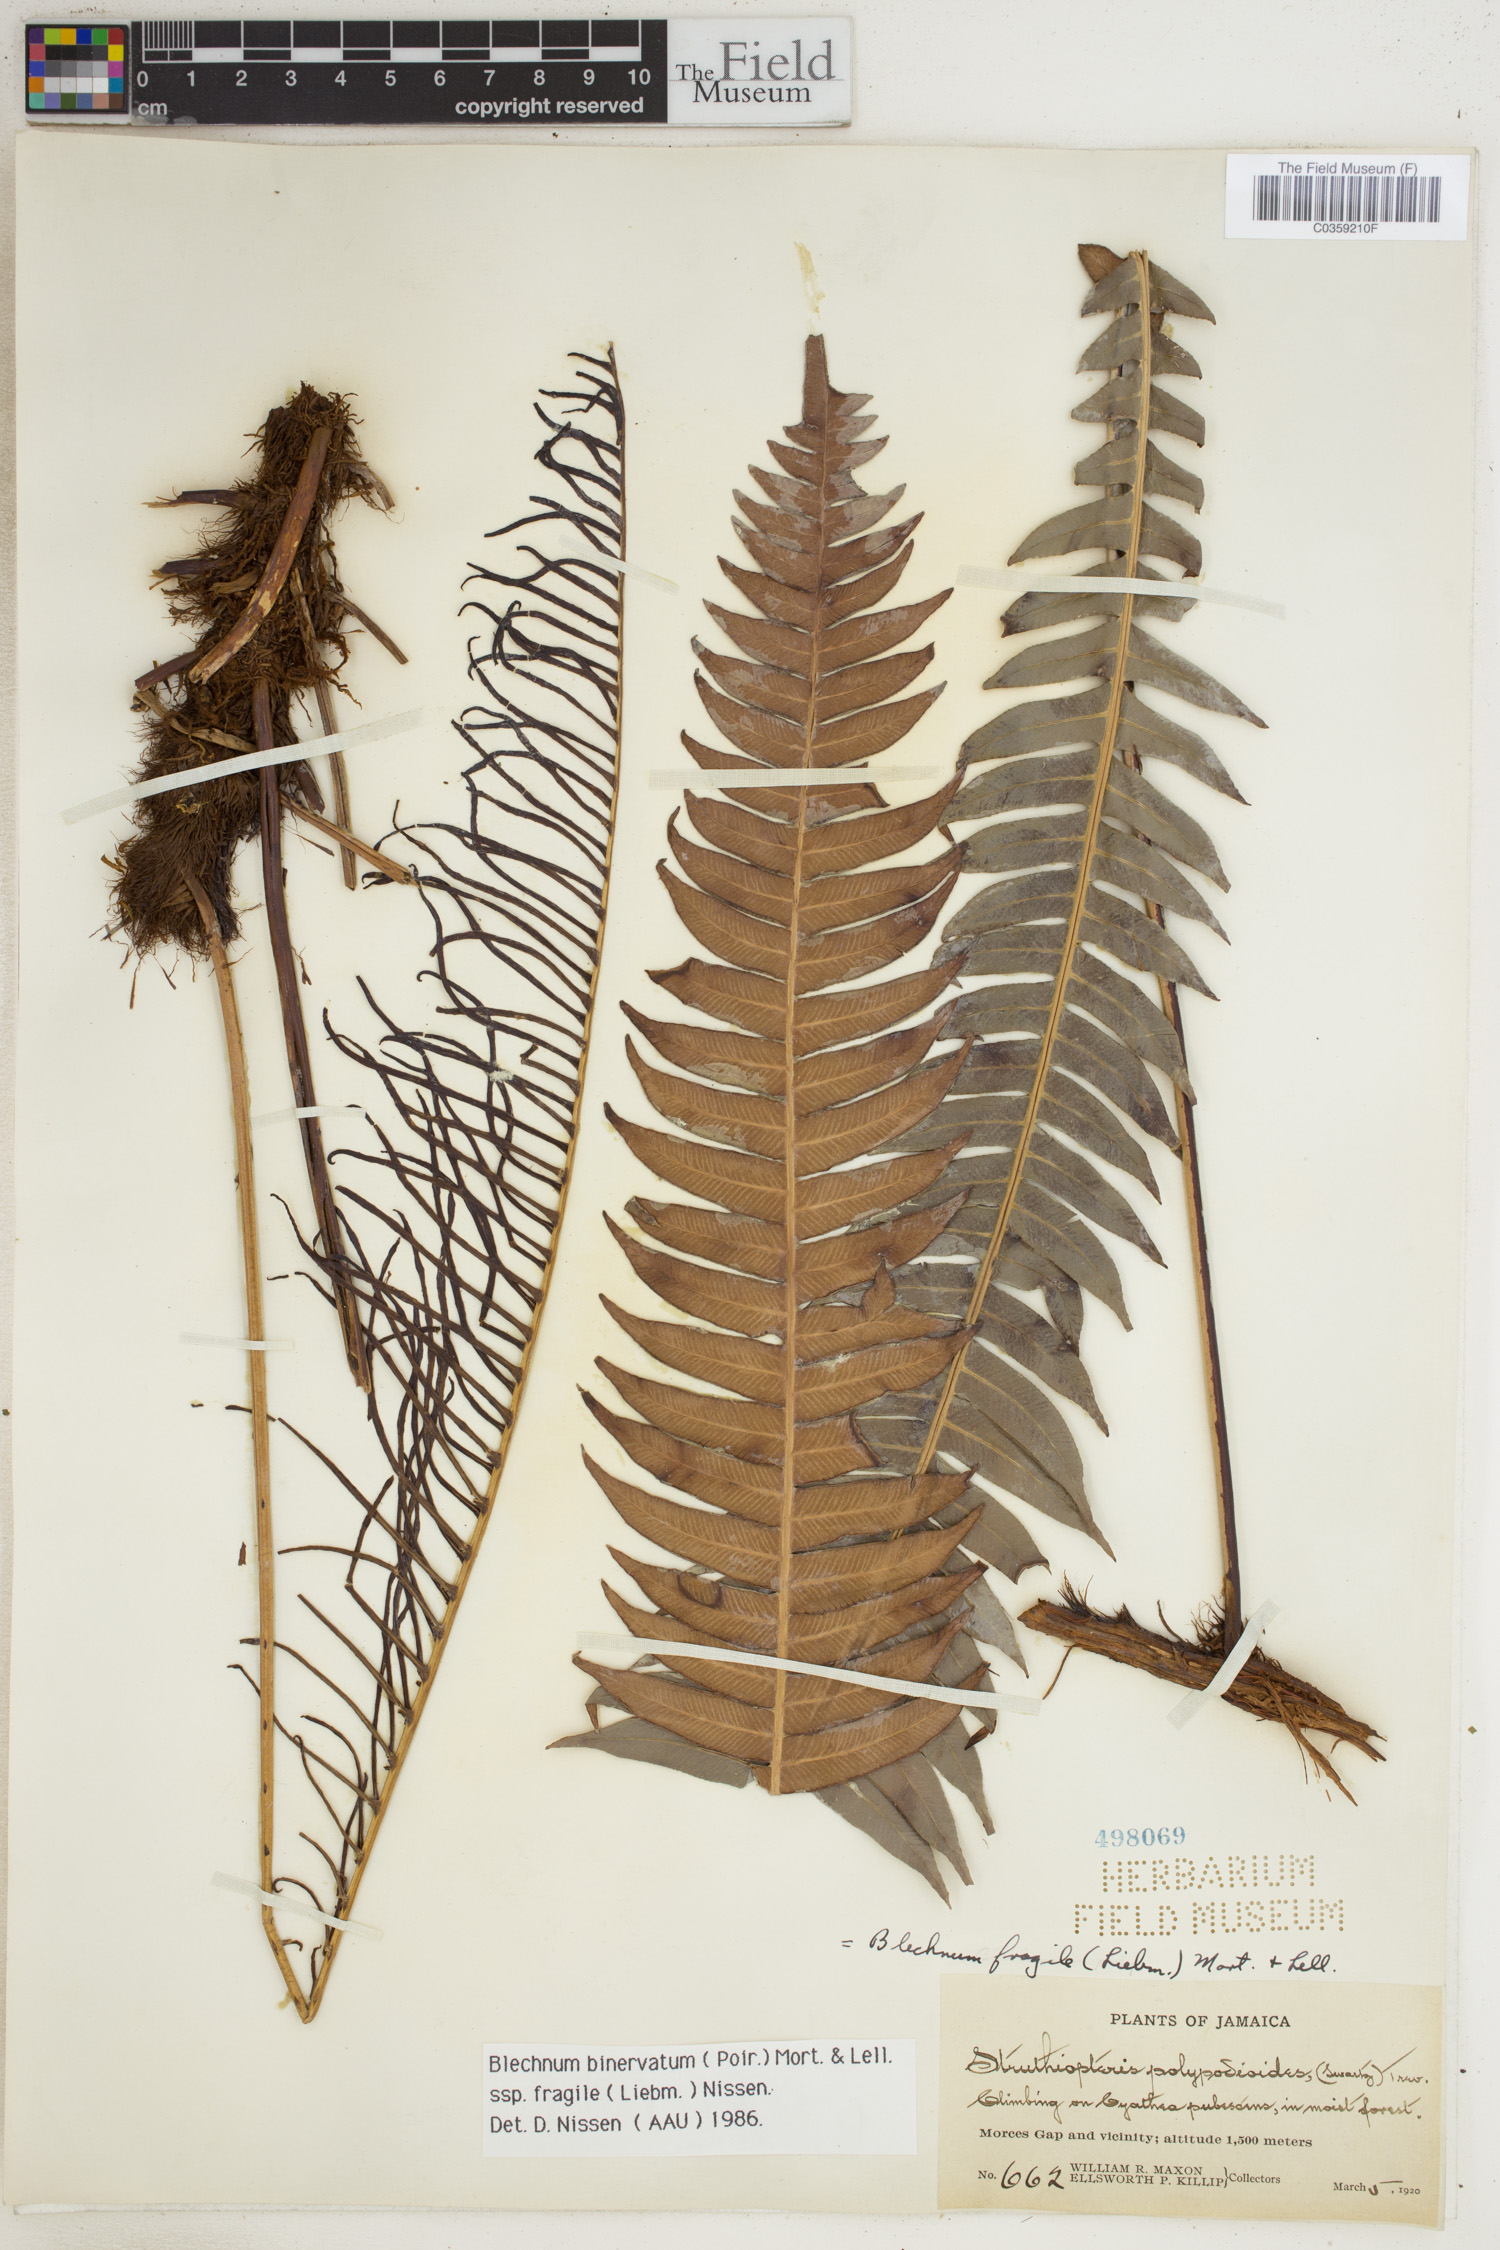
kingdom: Plantae
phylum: Tracheophyta
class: Polypodiopsida
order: Polypodiales
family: Blechnaceae
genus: Lomaridium
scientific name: Lomaridium binervatum
